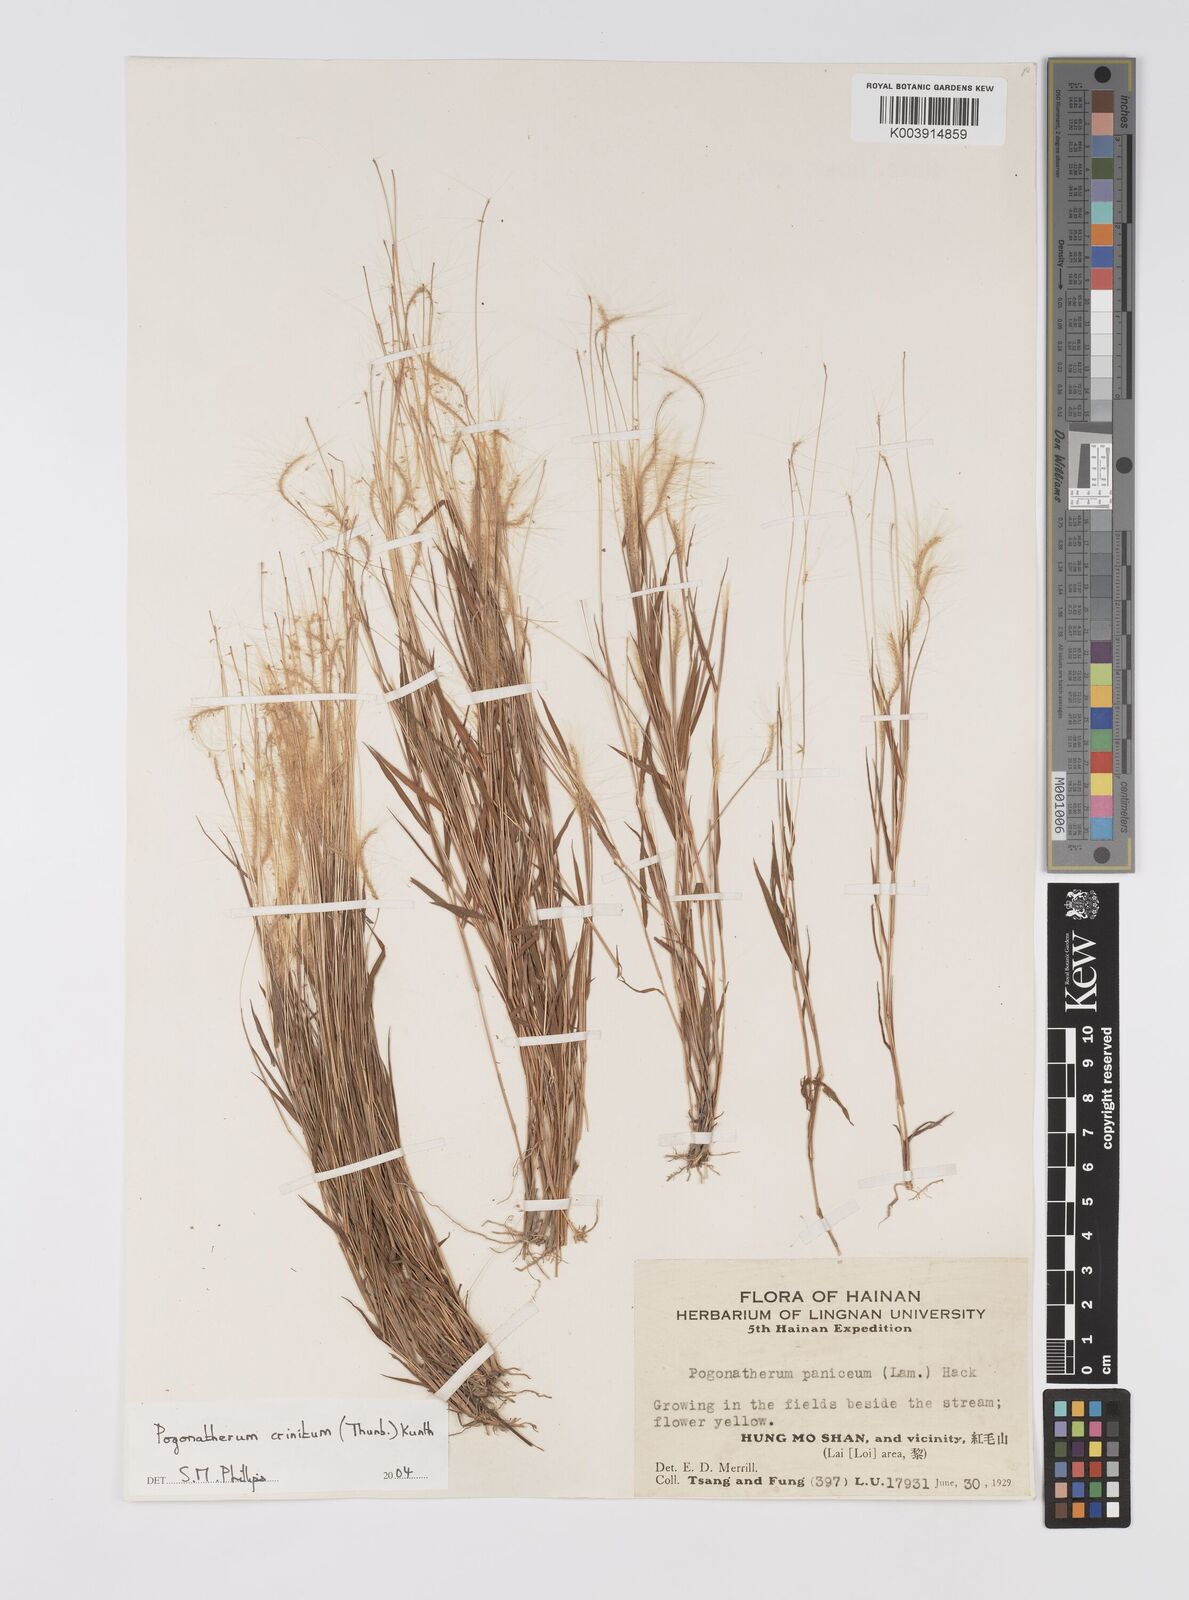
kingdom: Plantae
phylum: Tracheophyta
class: Liliopsida
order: Poales
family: Poaceae
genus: Pogonatherum
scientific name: Pogonatherum crinitum
